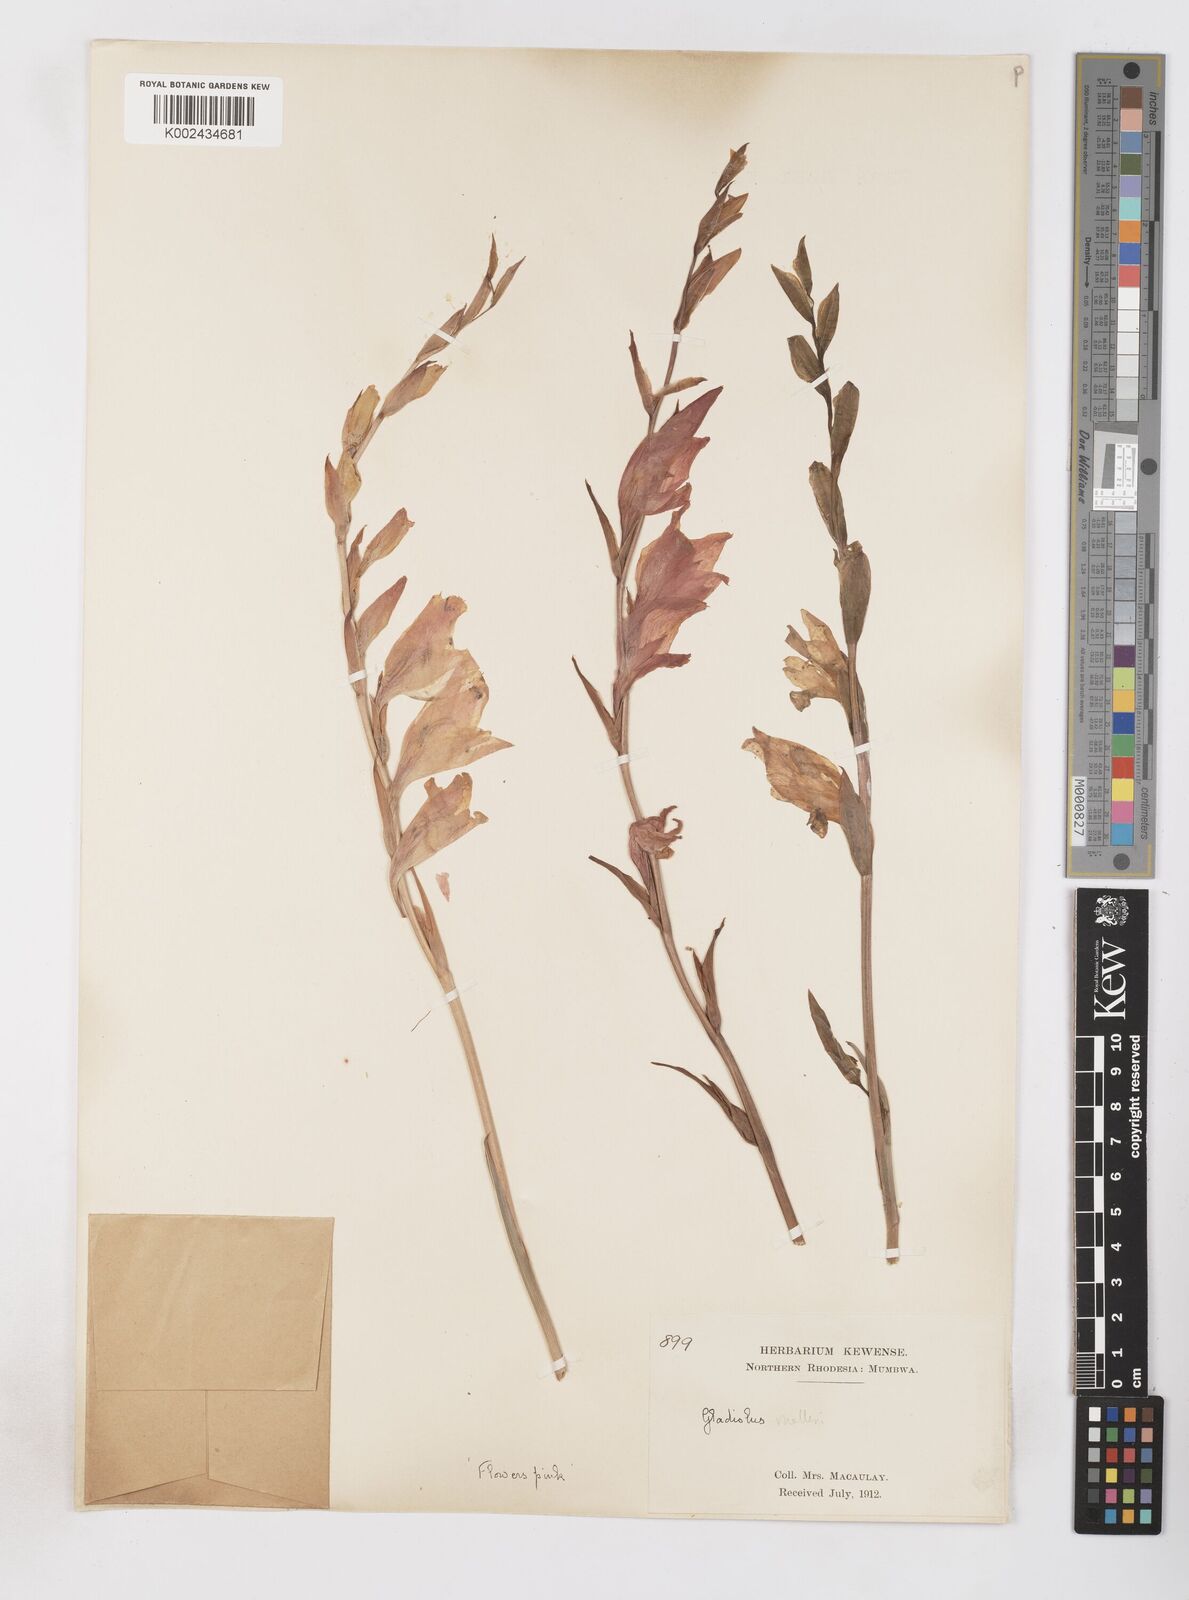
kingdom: Plantae
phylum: Tracheophyta
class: Liliopsida
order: Asparagales
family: Iridaceae
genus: Gladiolus
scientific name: Gladiolus melleri
